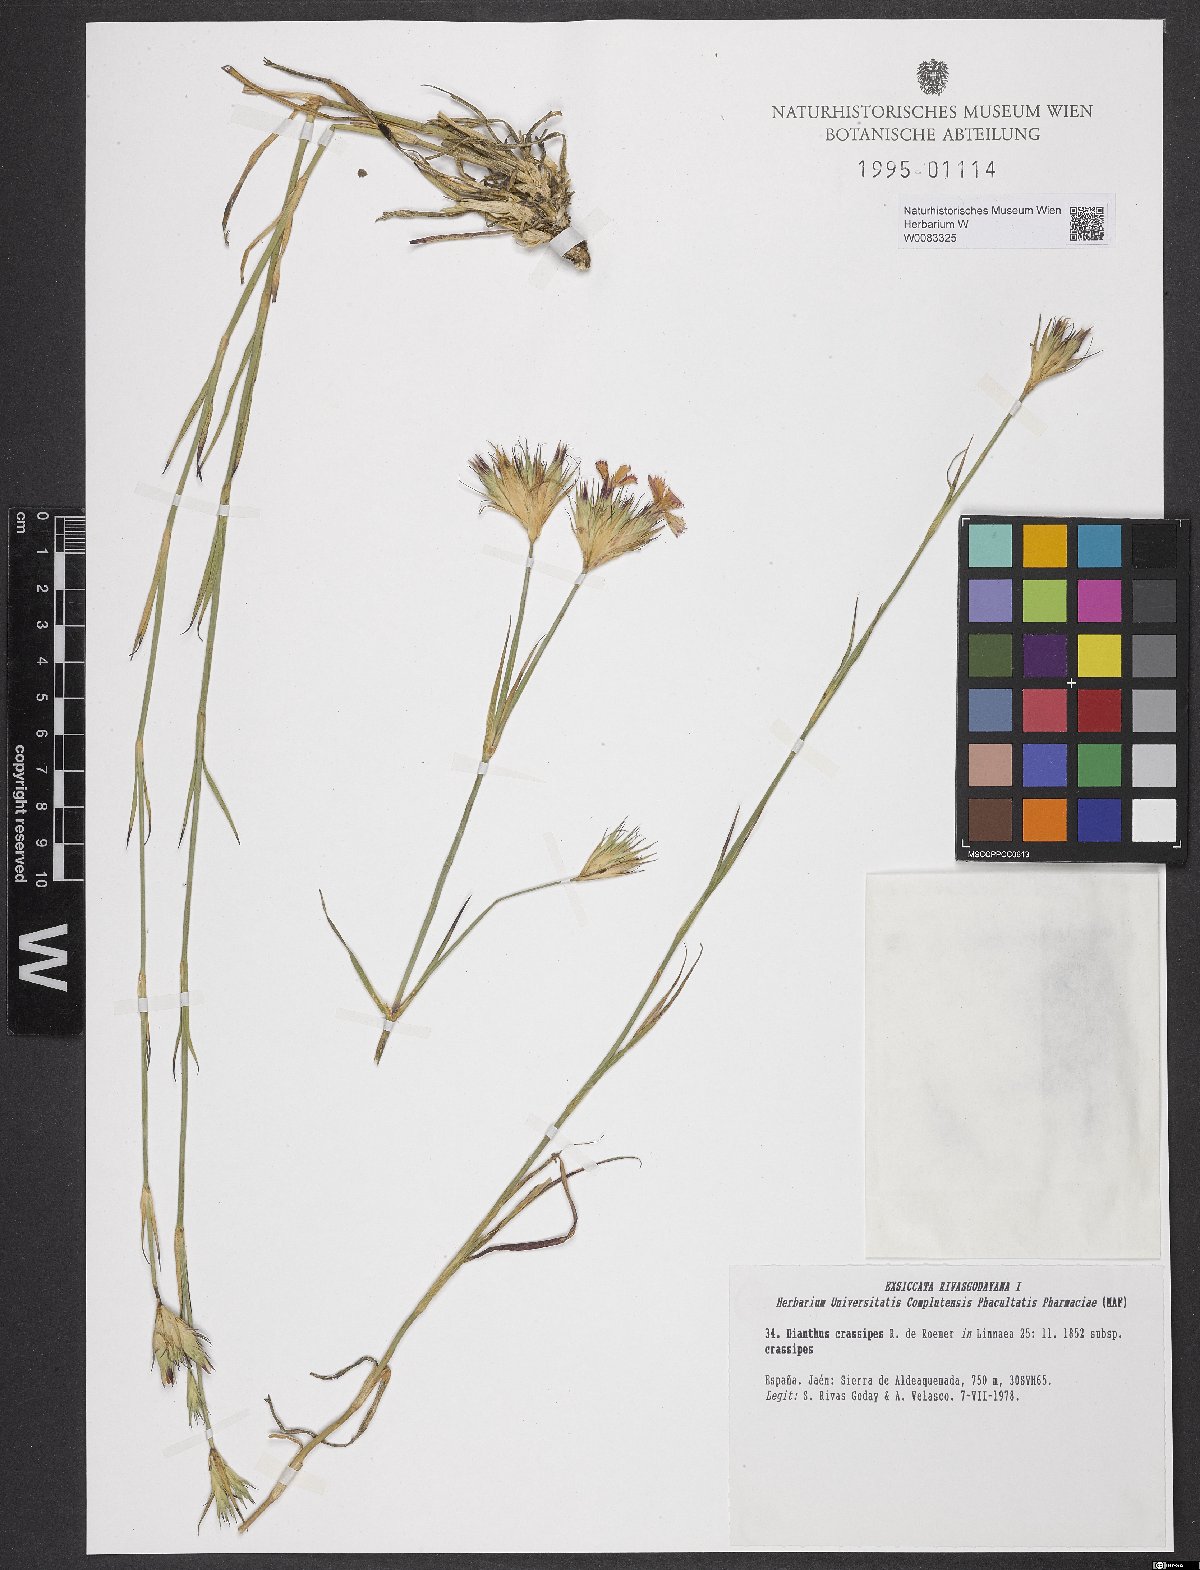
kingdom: Plantae
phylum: Tracheophyta
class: Magnoliopsida
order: Caryophyllales
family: Caryophyllaceae
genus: Dianthus
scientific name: Dianthus crassipes
